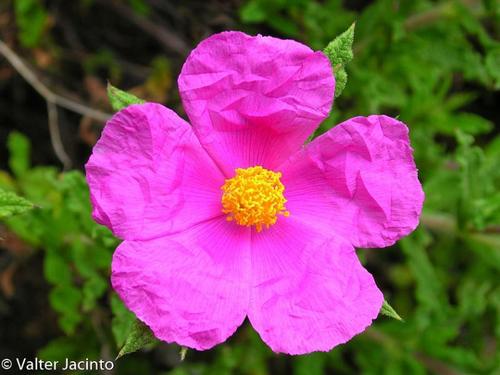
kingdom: Plantae
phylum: Tracheophyta
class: Magnoliopsida
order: Malvales
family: Cistaceae
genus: Cistus
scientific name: Cistus crispus
